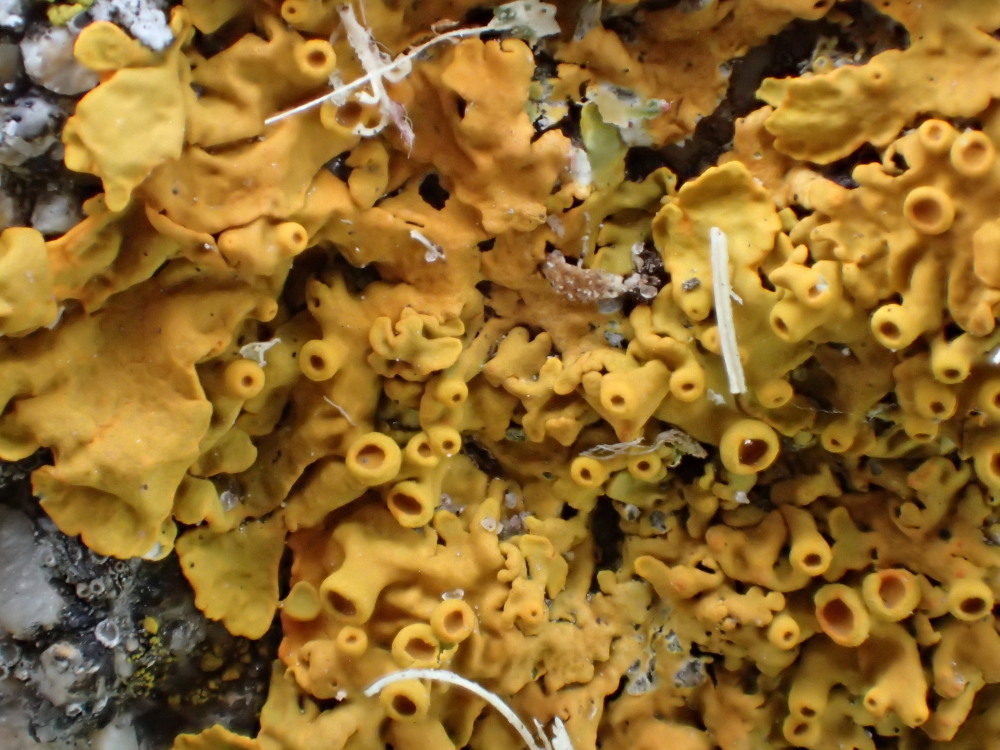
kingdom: Fungi
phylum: Ascomycota
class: Lecanoromycetes
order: Teloschistales
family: Teloschistaceae
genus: Xanthoria
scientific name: Xanthoria parietina
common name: almindelig væggelav
